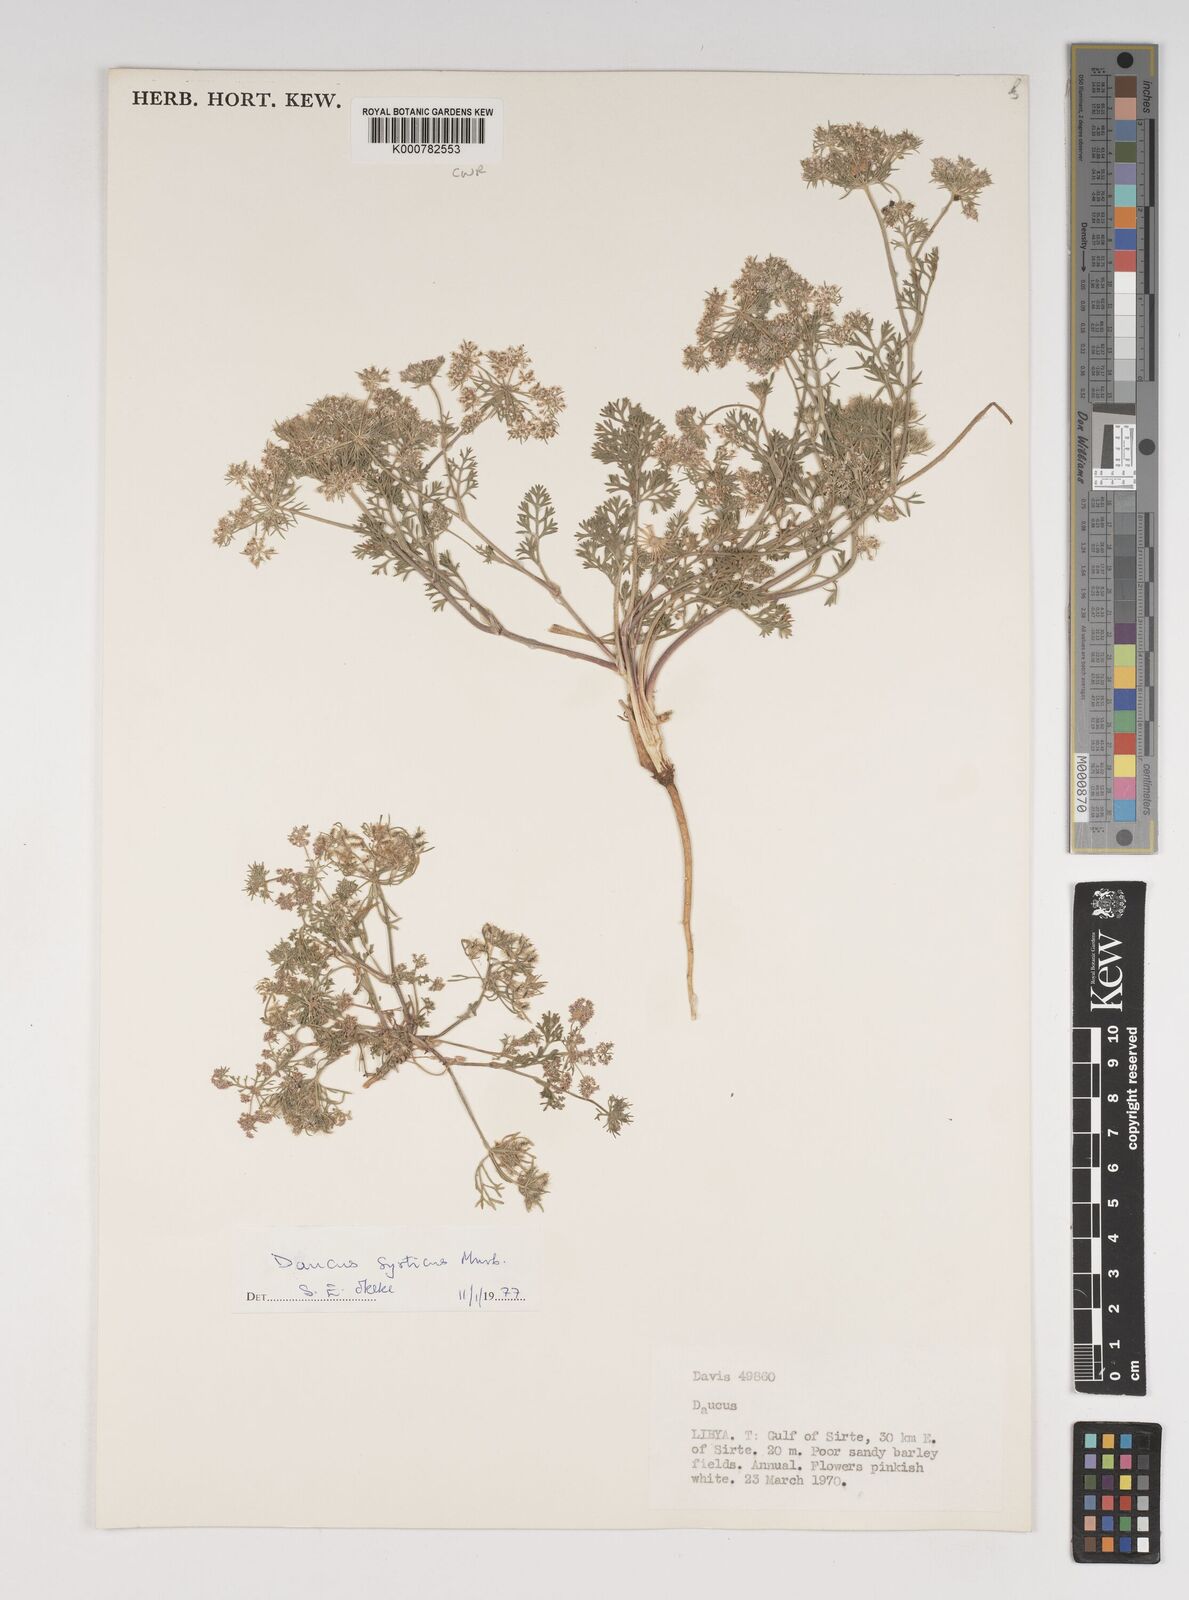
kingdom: Plantae
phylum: Tracheophyta
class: Magnoliopsida
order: Apiales
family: Apiaceae
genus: Daucus
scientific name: Daucus syrticus
